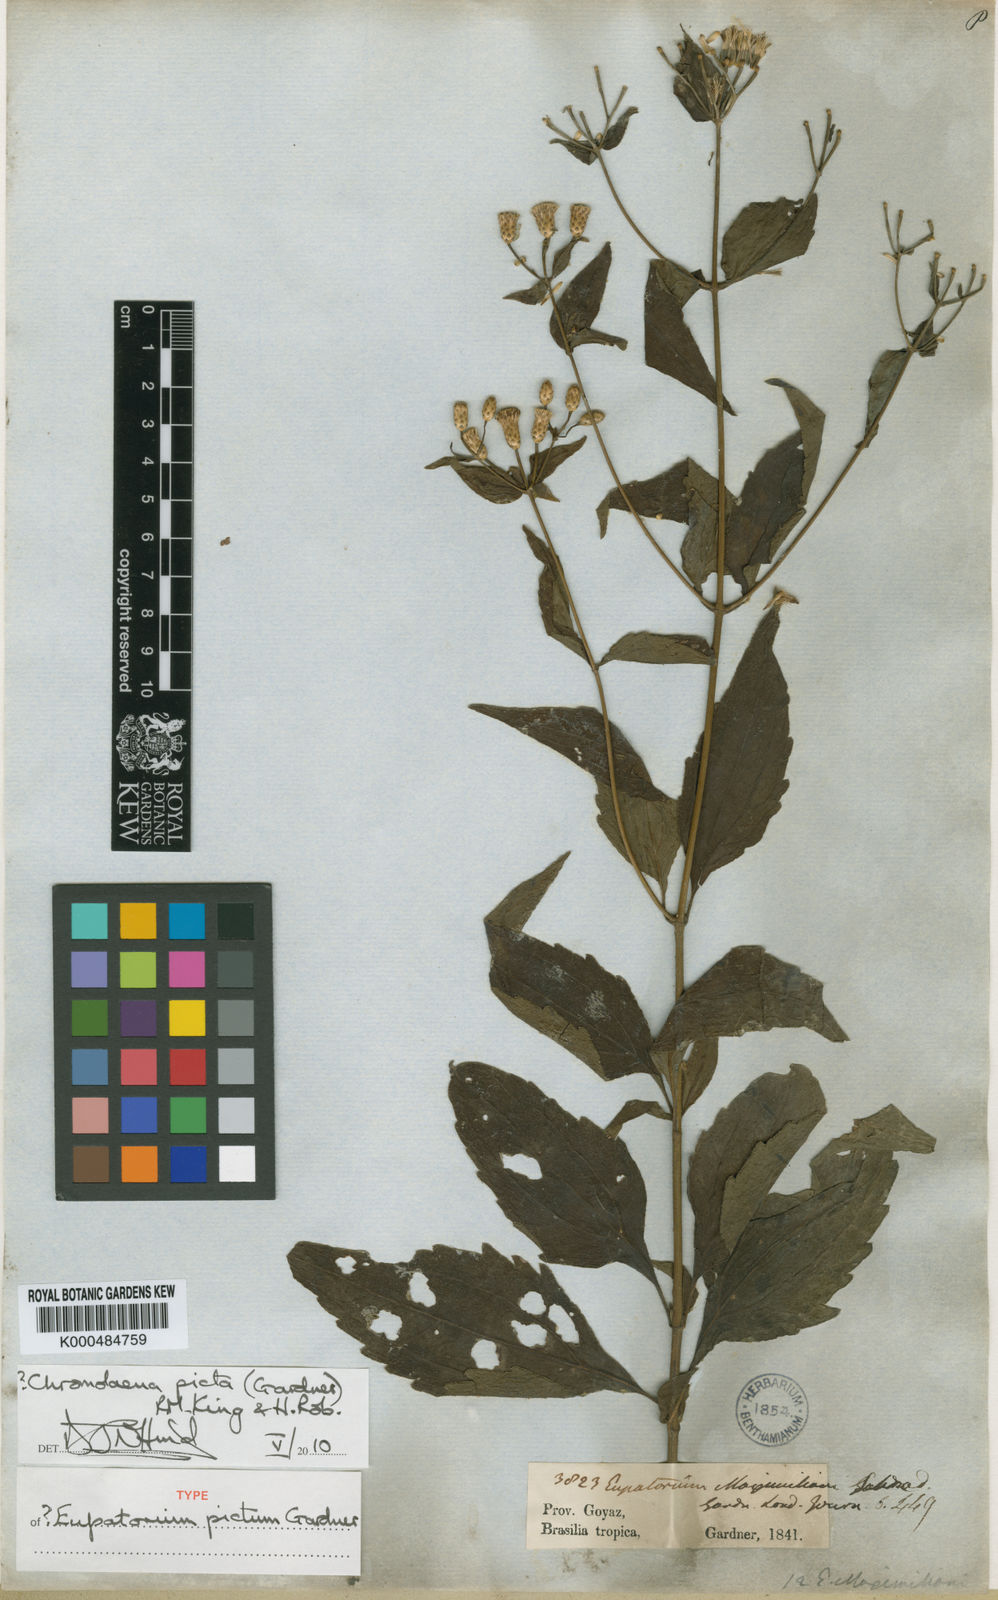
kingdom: Plantae
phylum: Tracheophyta
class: Magnoliopsida
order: Asterales
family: Asteraceae
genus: Chromolaena
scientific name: Chromolaena picta
